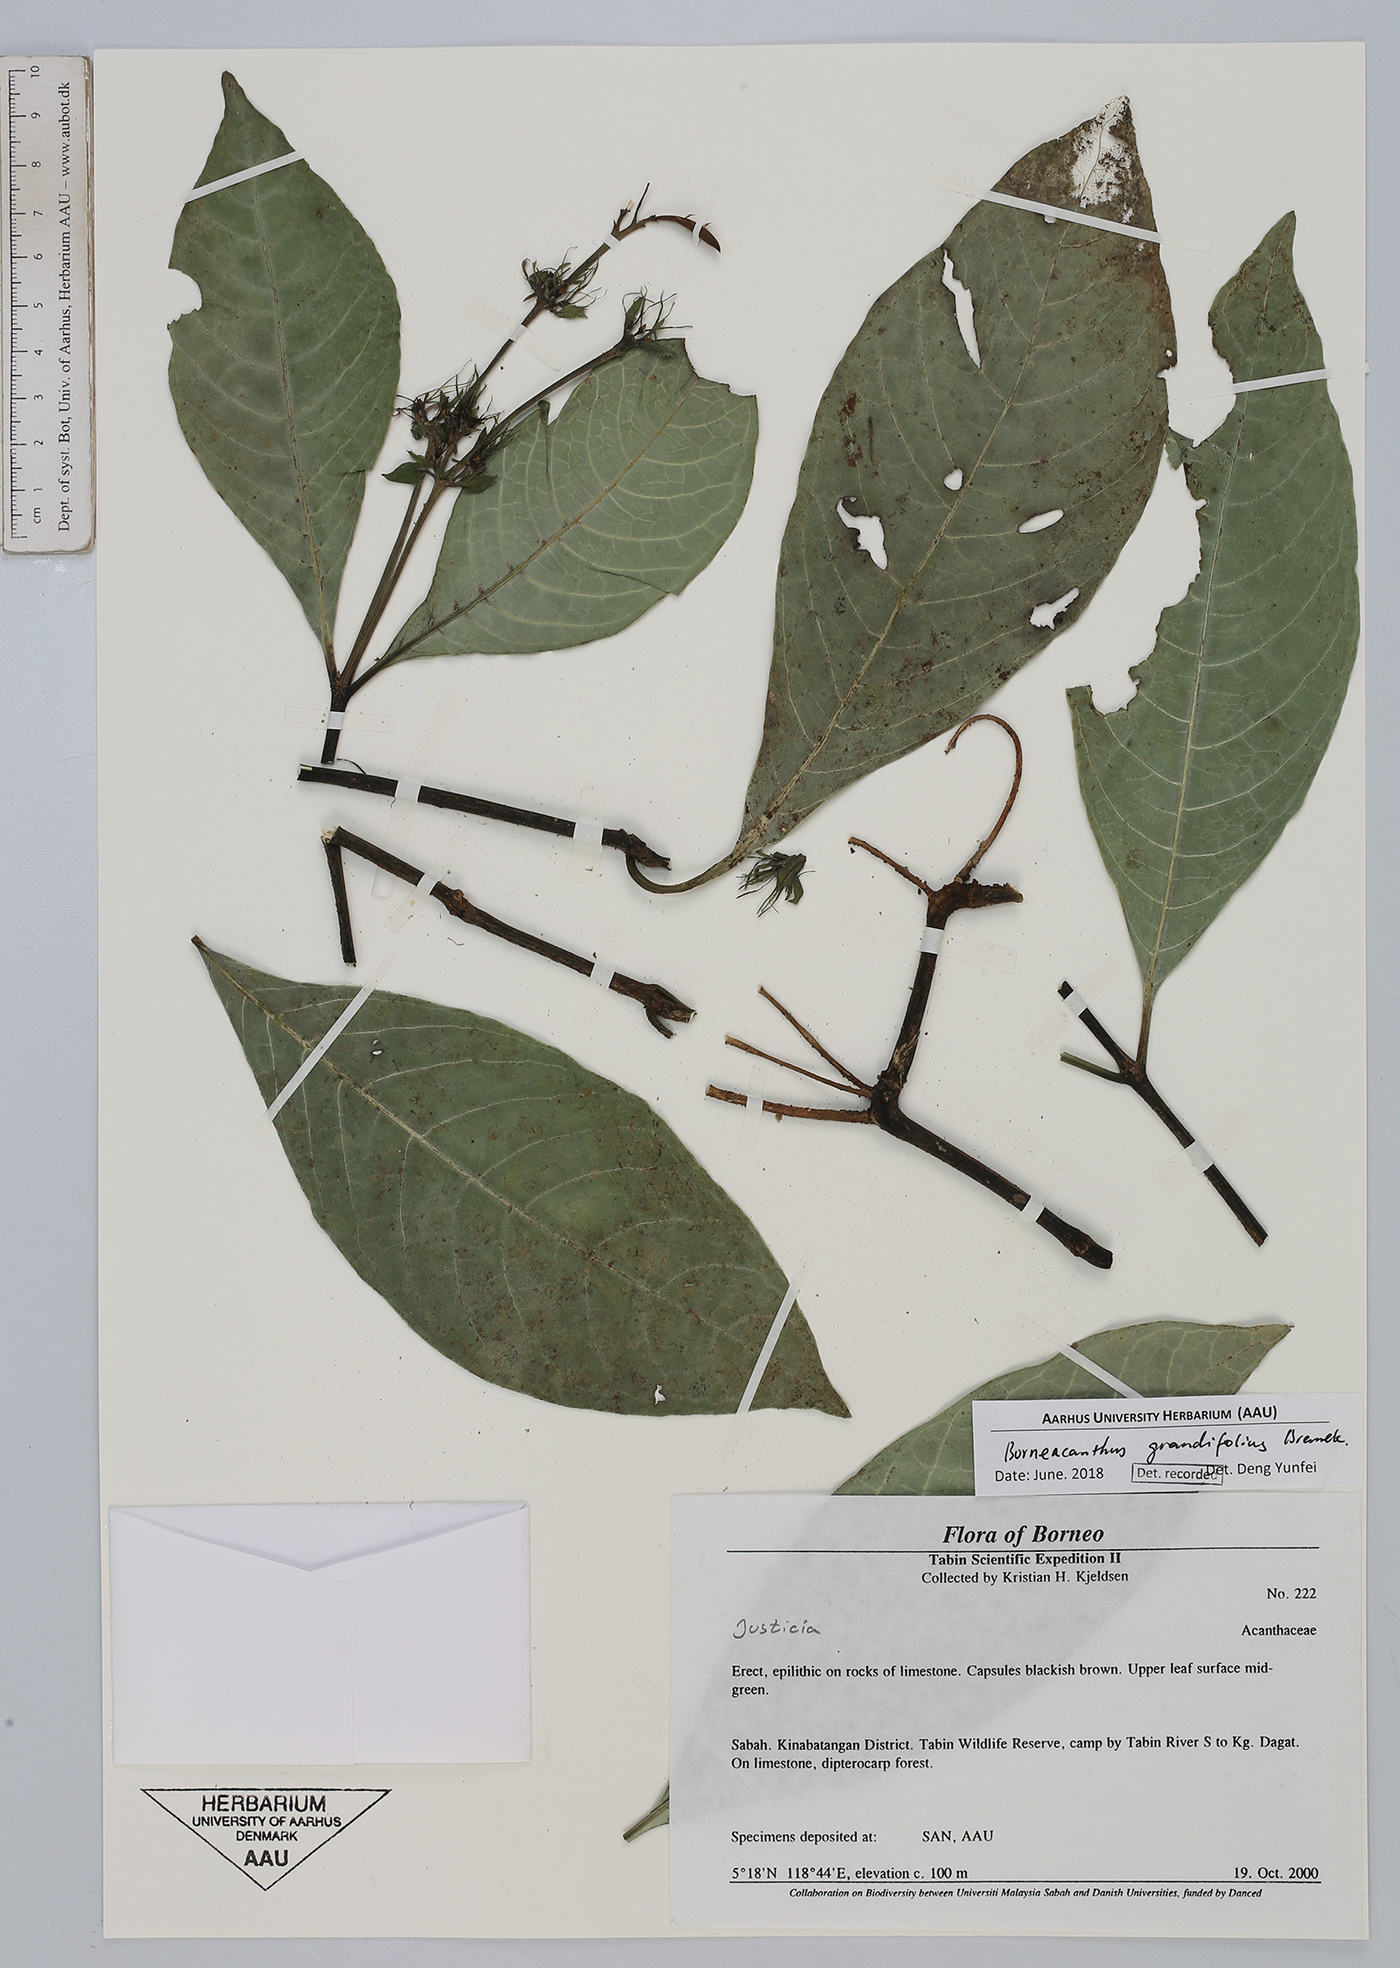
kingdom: Plantae
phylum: Tracheophyta
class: Magnoliopsida
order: Lamiales
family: Acanthaceae
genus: Borneacanthus
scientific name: Borneacanthus grandifolius
